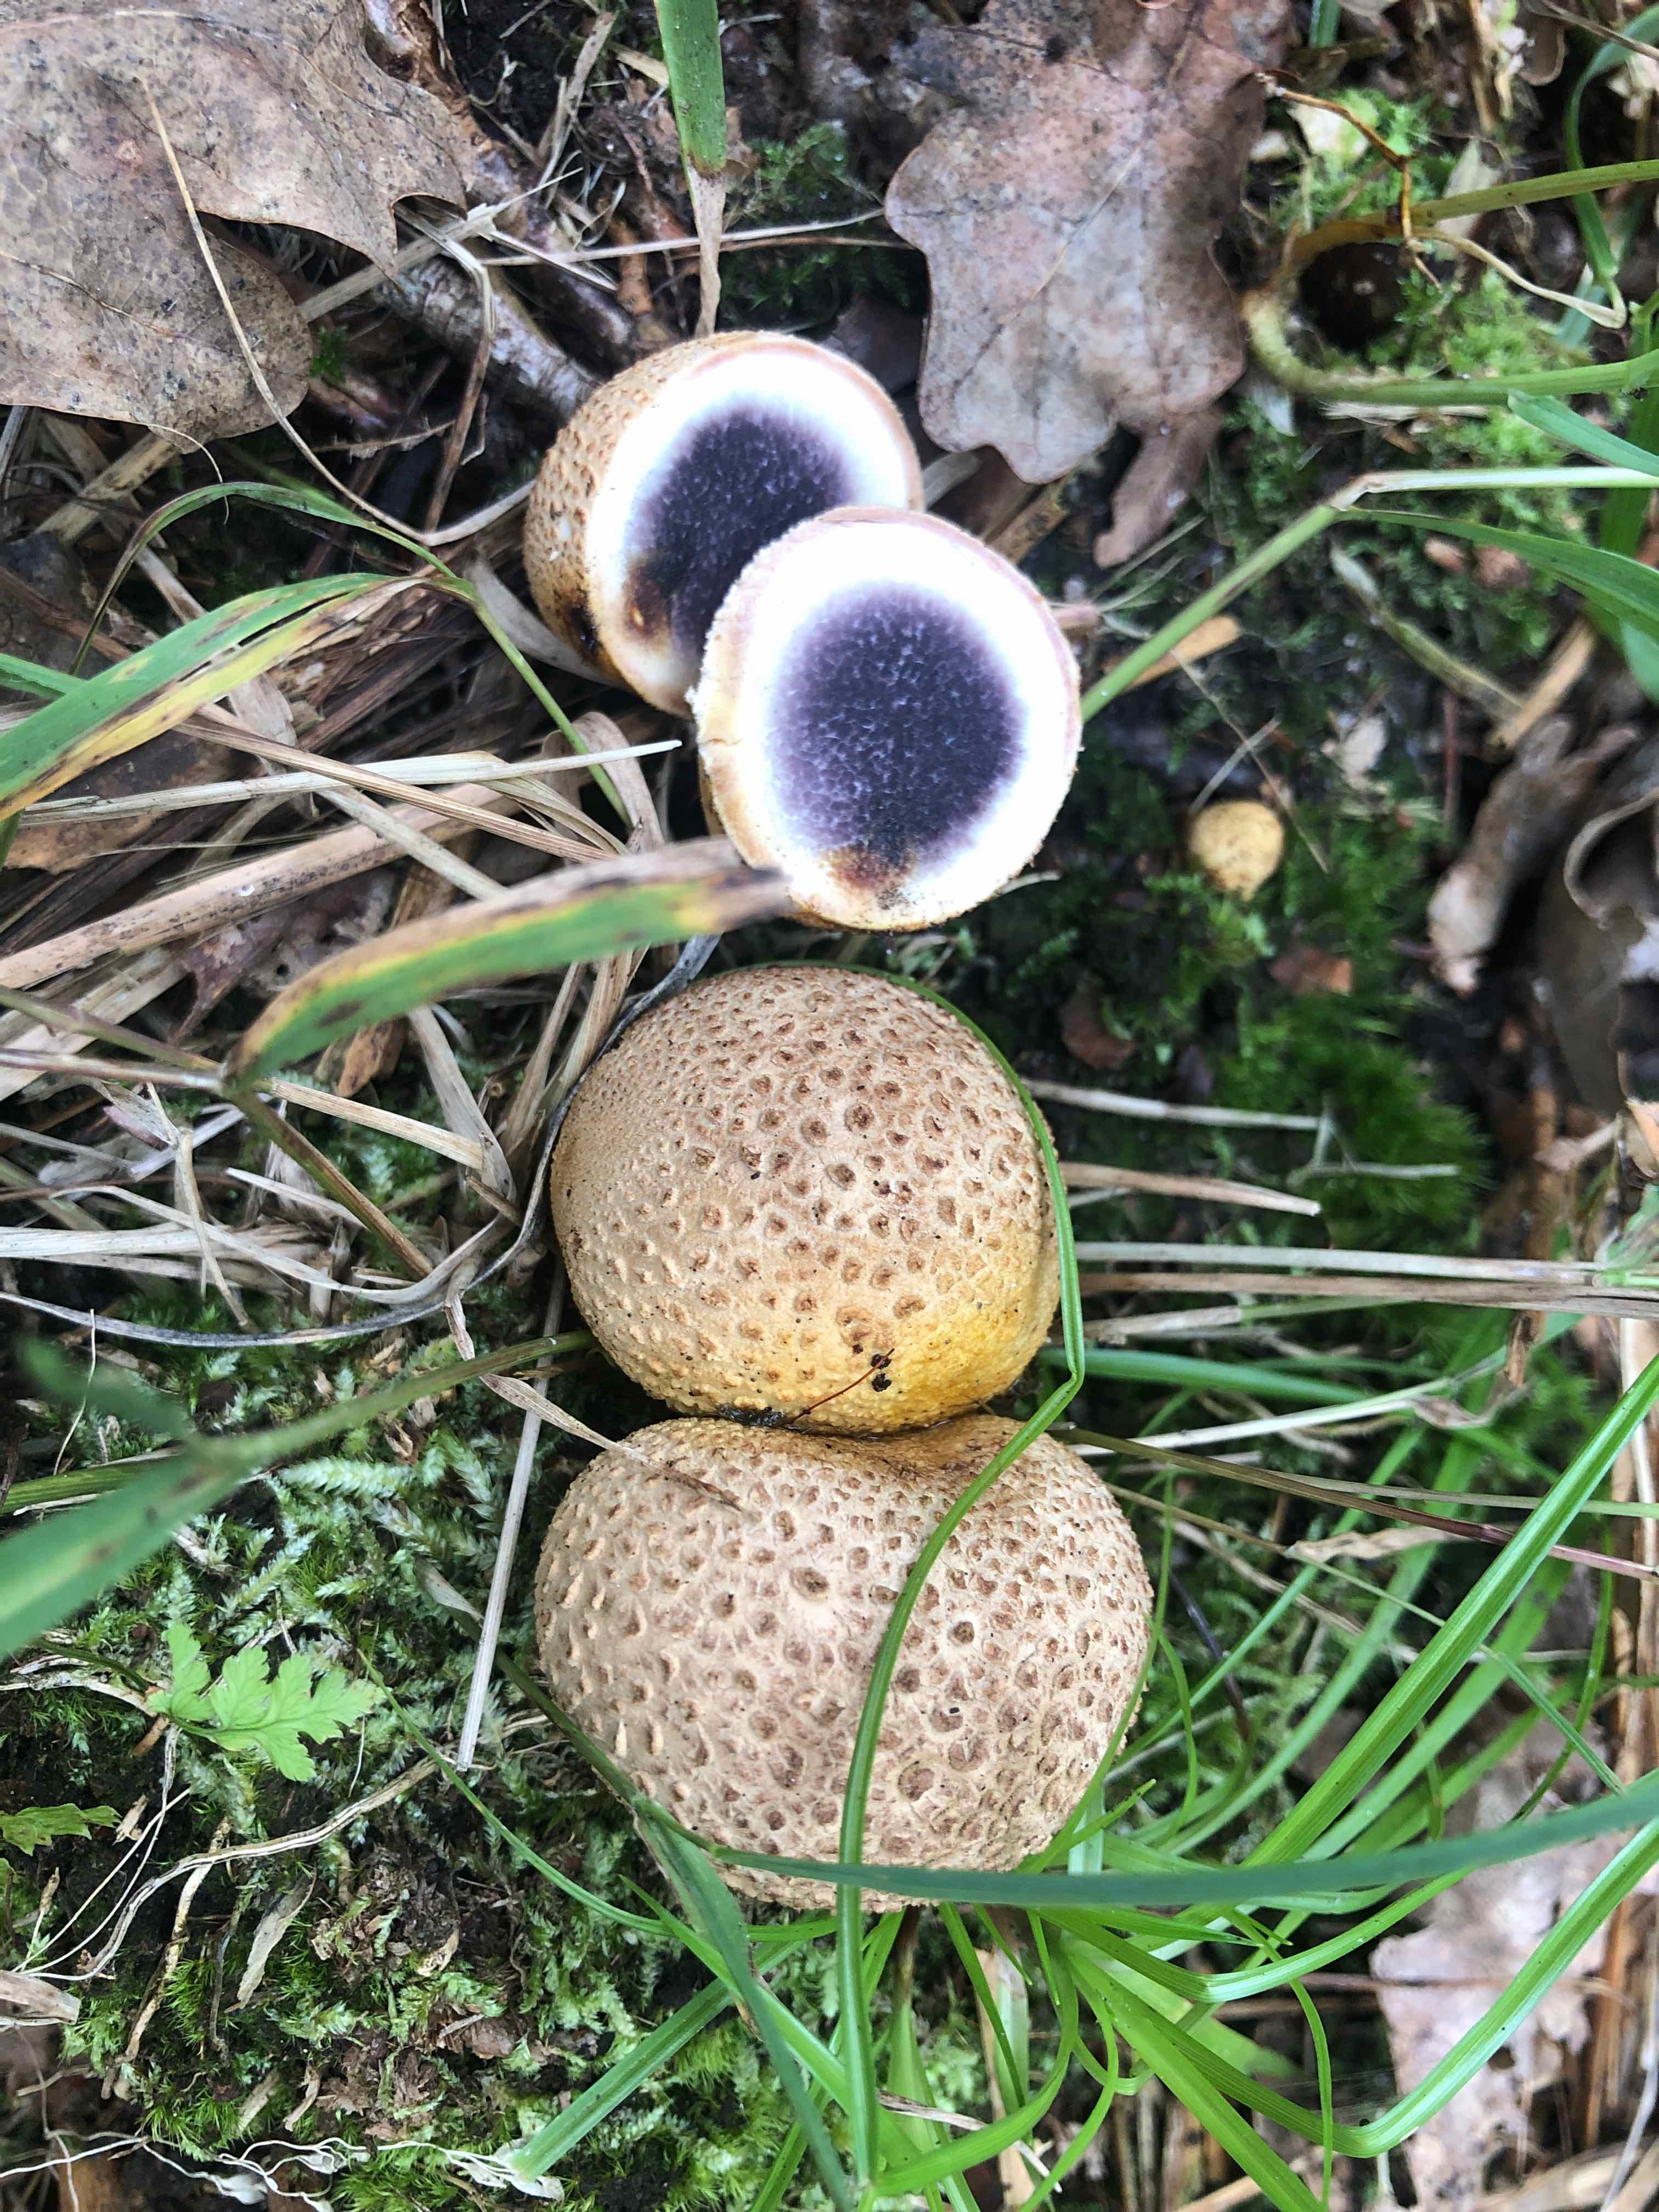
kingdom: Fungi
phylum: Basidiomycota
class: Agaricomycetes
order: Boletales
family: Sclerodermataceae
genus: Scleroderma
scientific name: Scleroderma citrinum
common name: almindelig bruskbold
